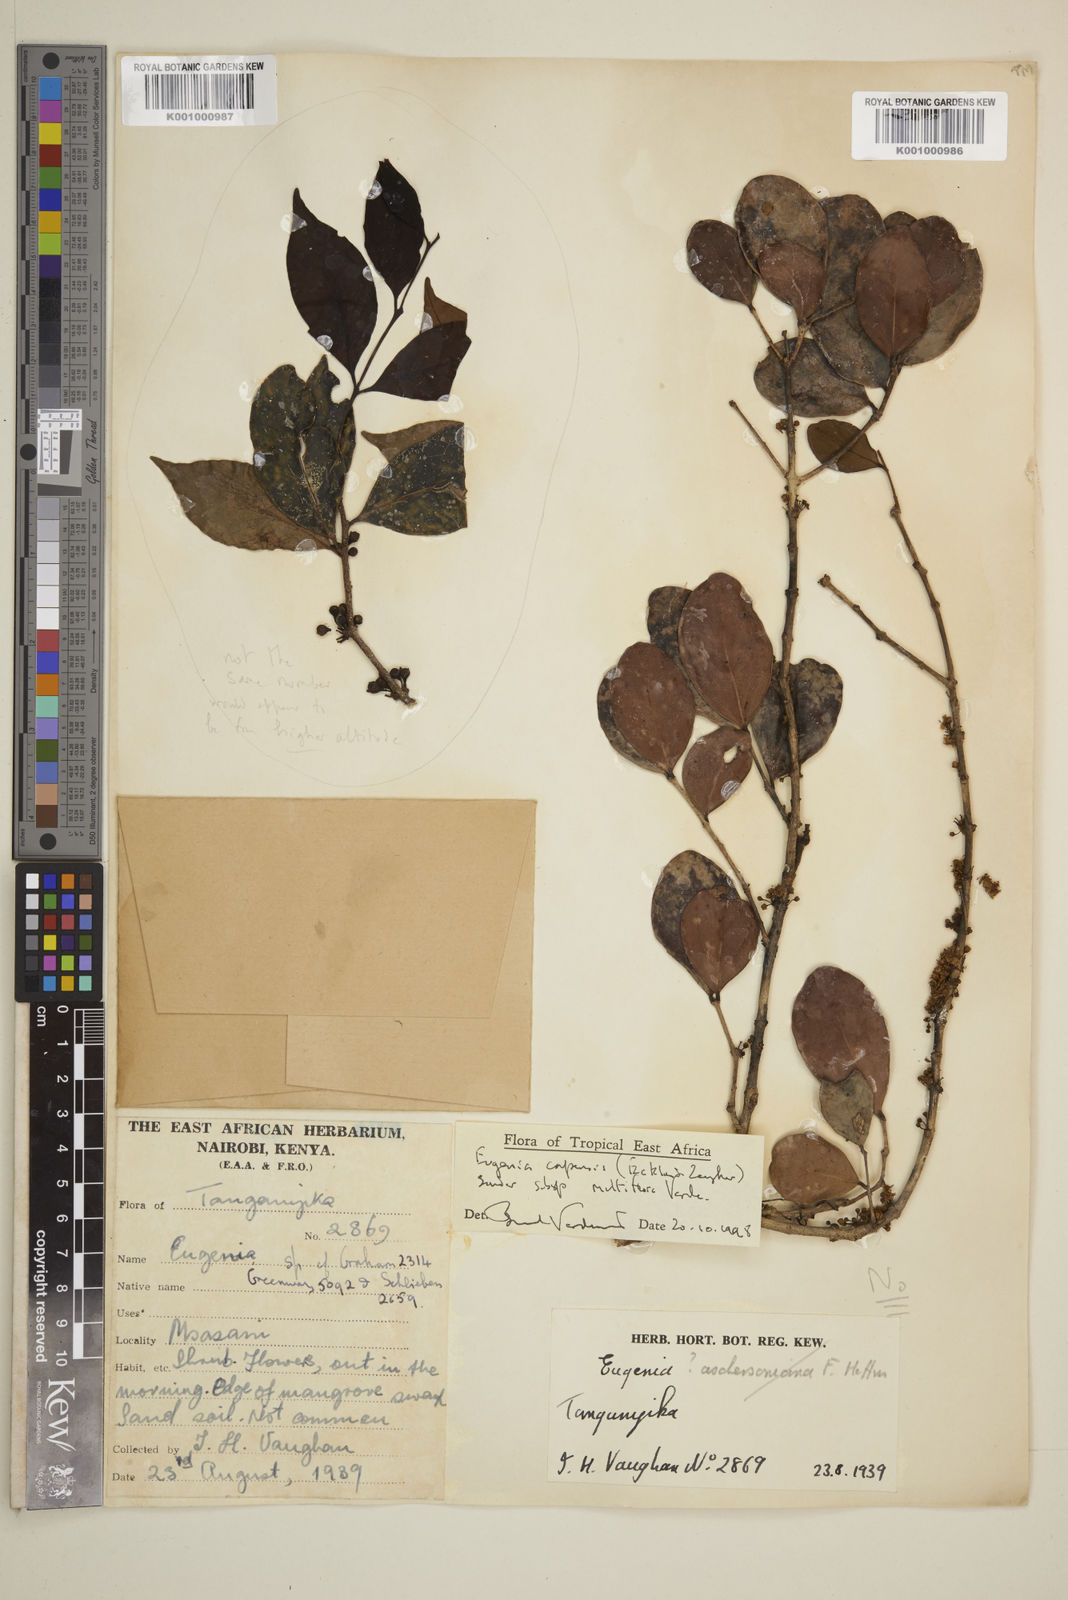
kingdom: Plantae
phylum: Tracheophyta
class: Magnoliopsida
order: Myrtales
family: Myrtaceae
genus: Eugenia
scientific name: Eugenia capensis
